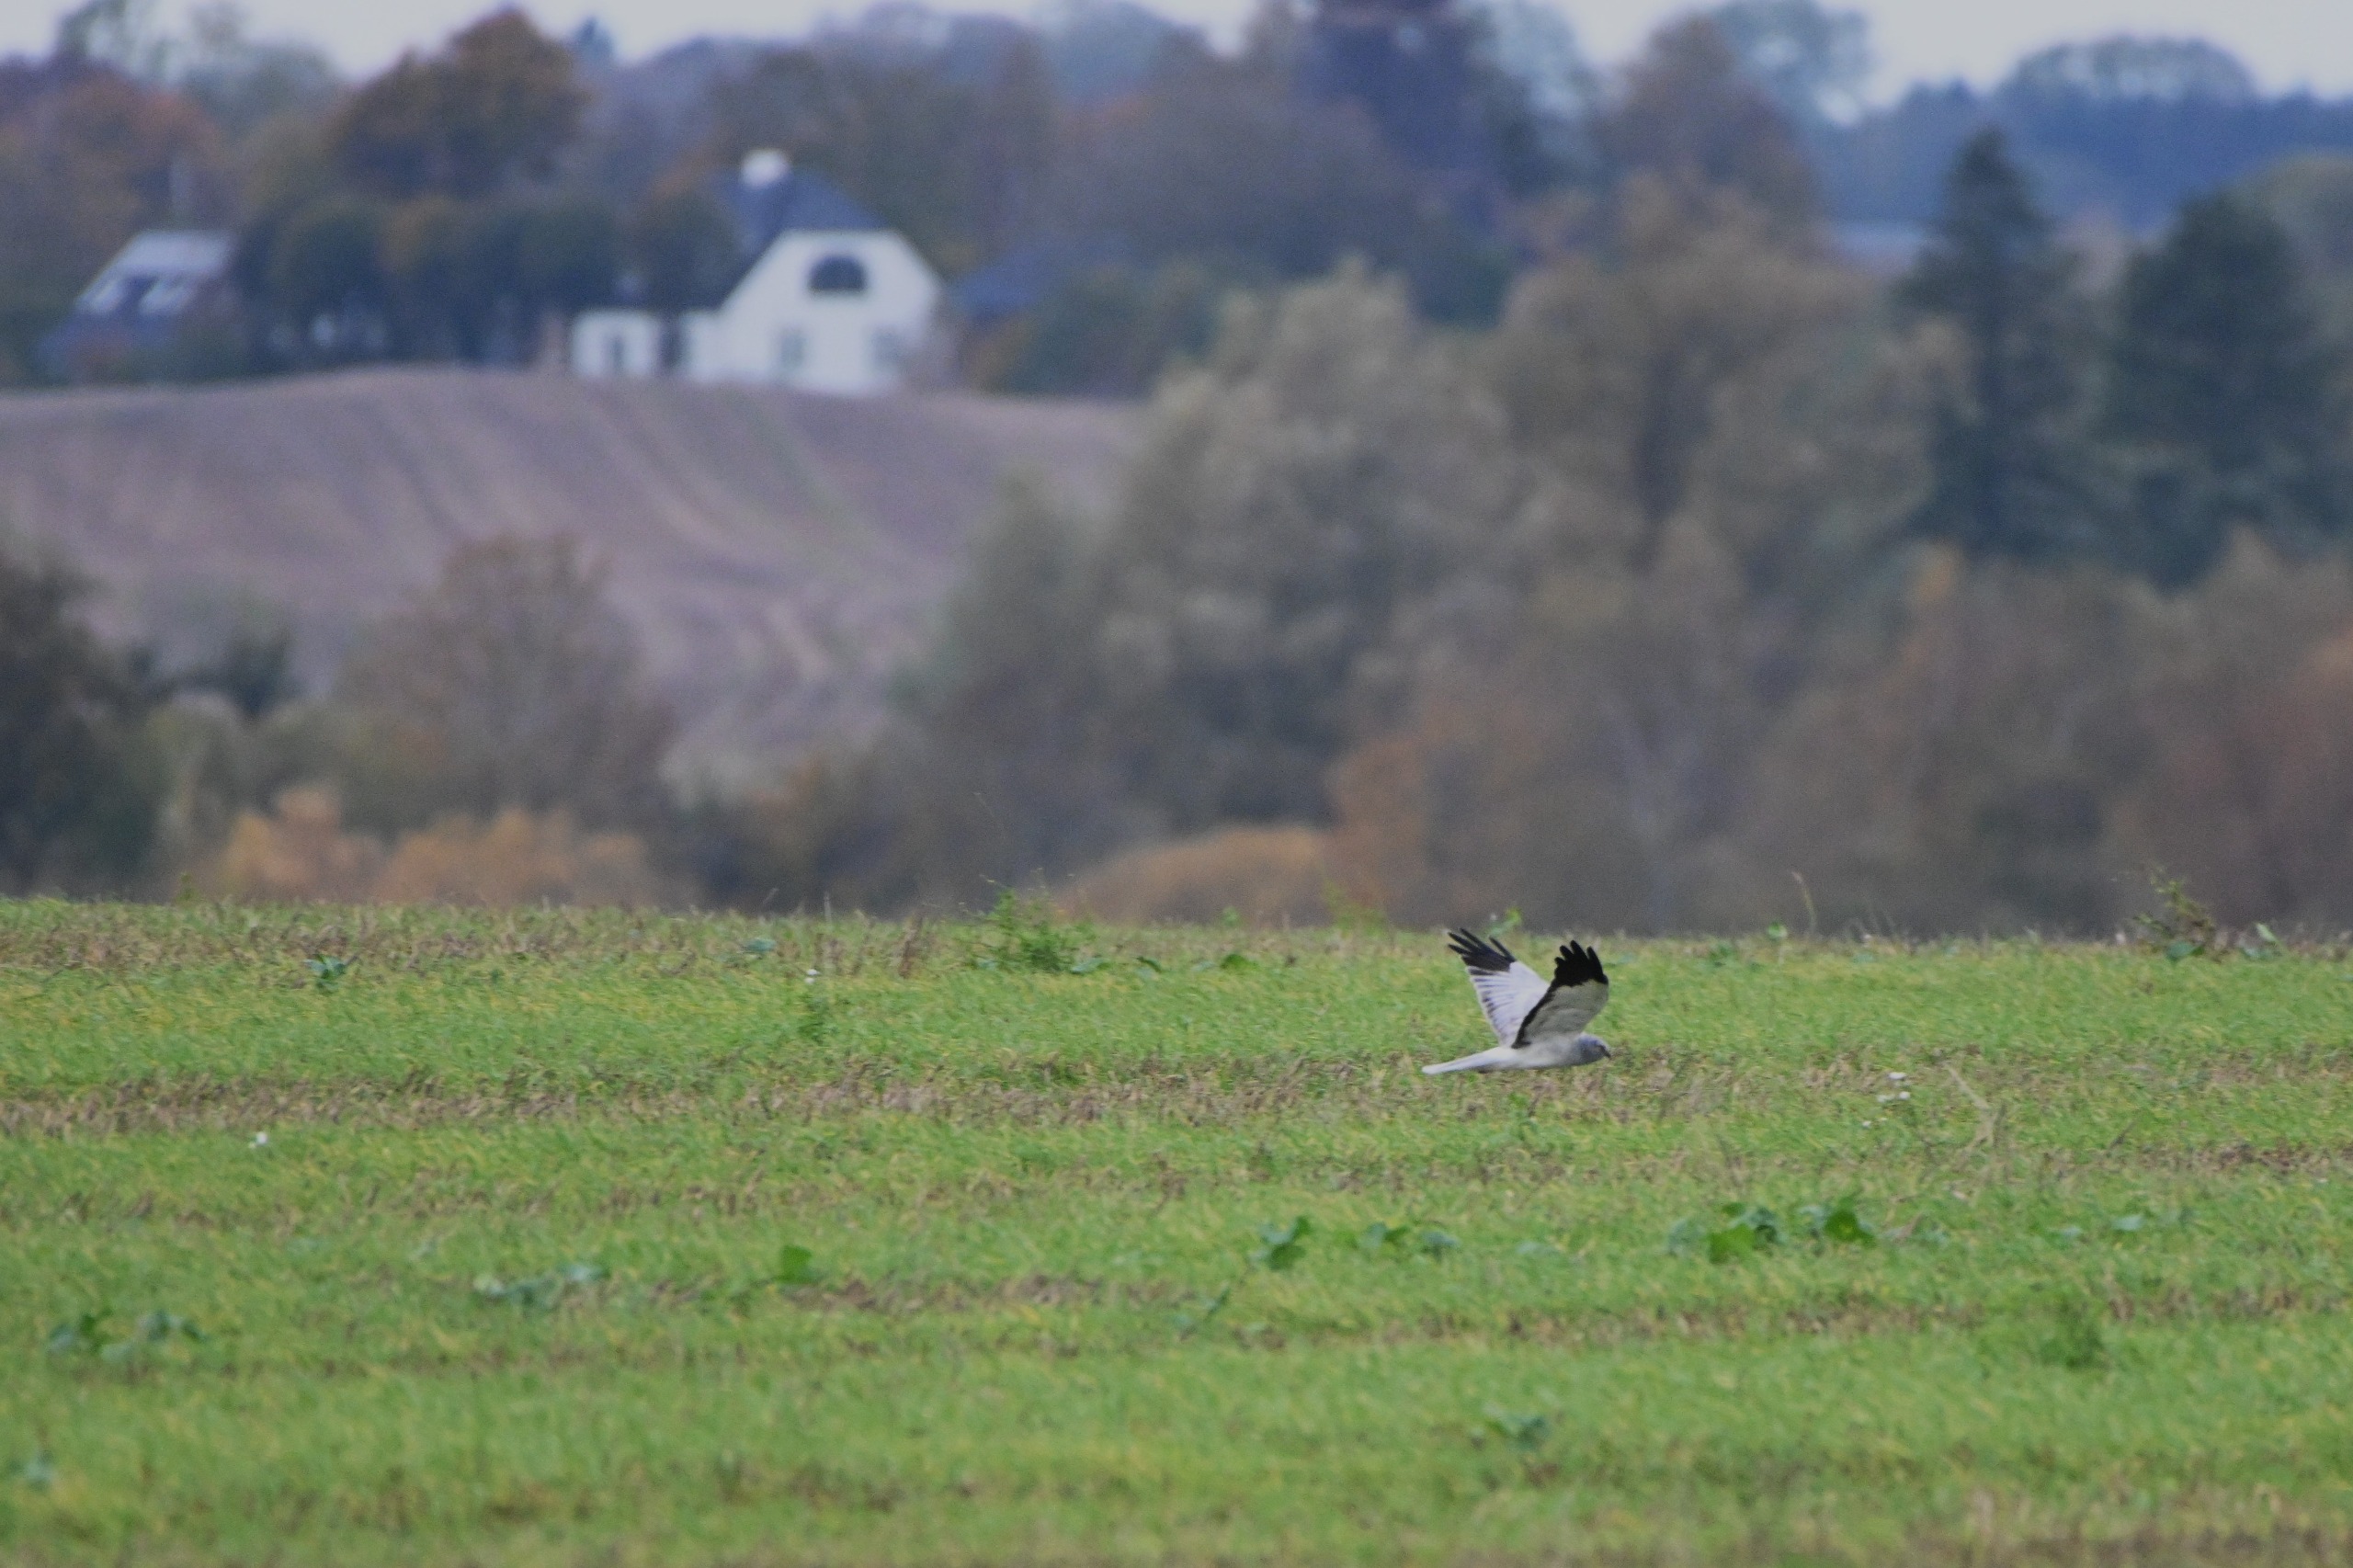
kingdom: Animalia
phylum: Chordata
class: Aves
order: Accipitriformes
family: Accipitridae
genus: Circus
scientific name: Circus cyaneus
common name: Blå kærhøg
